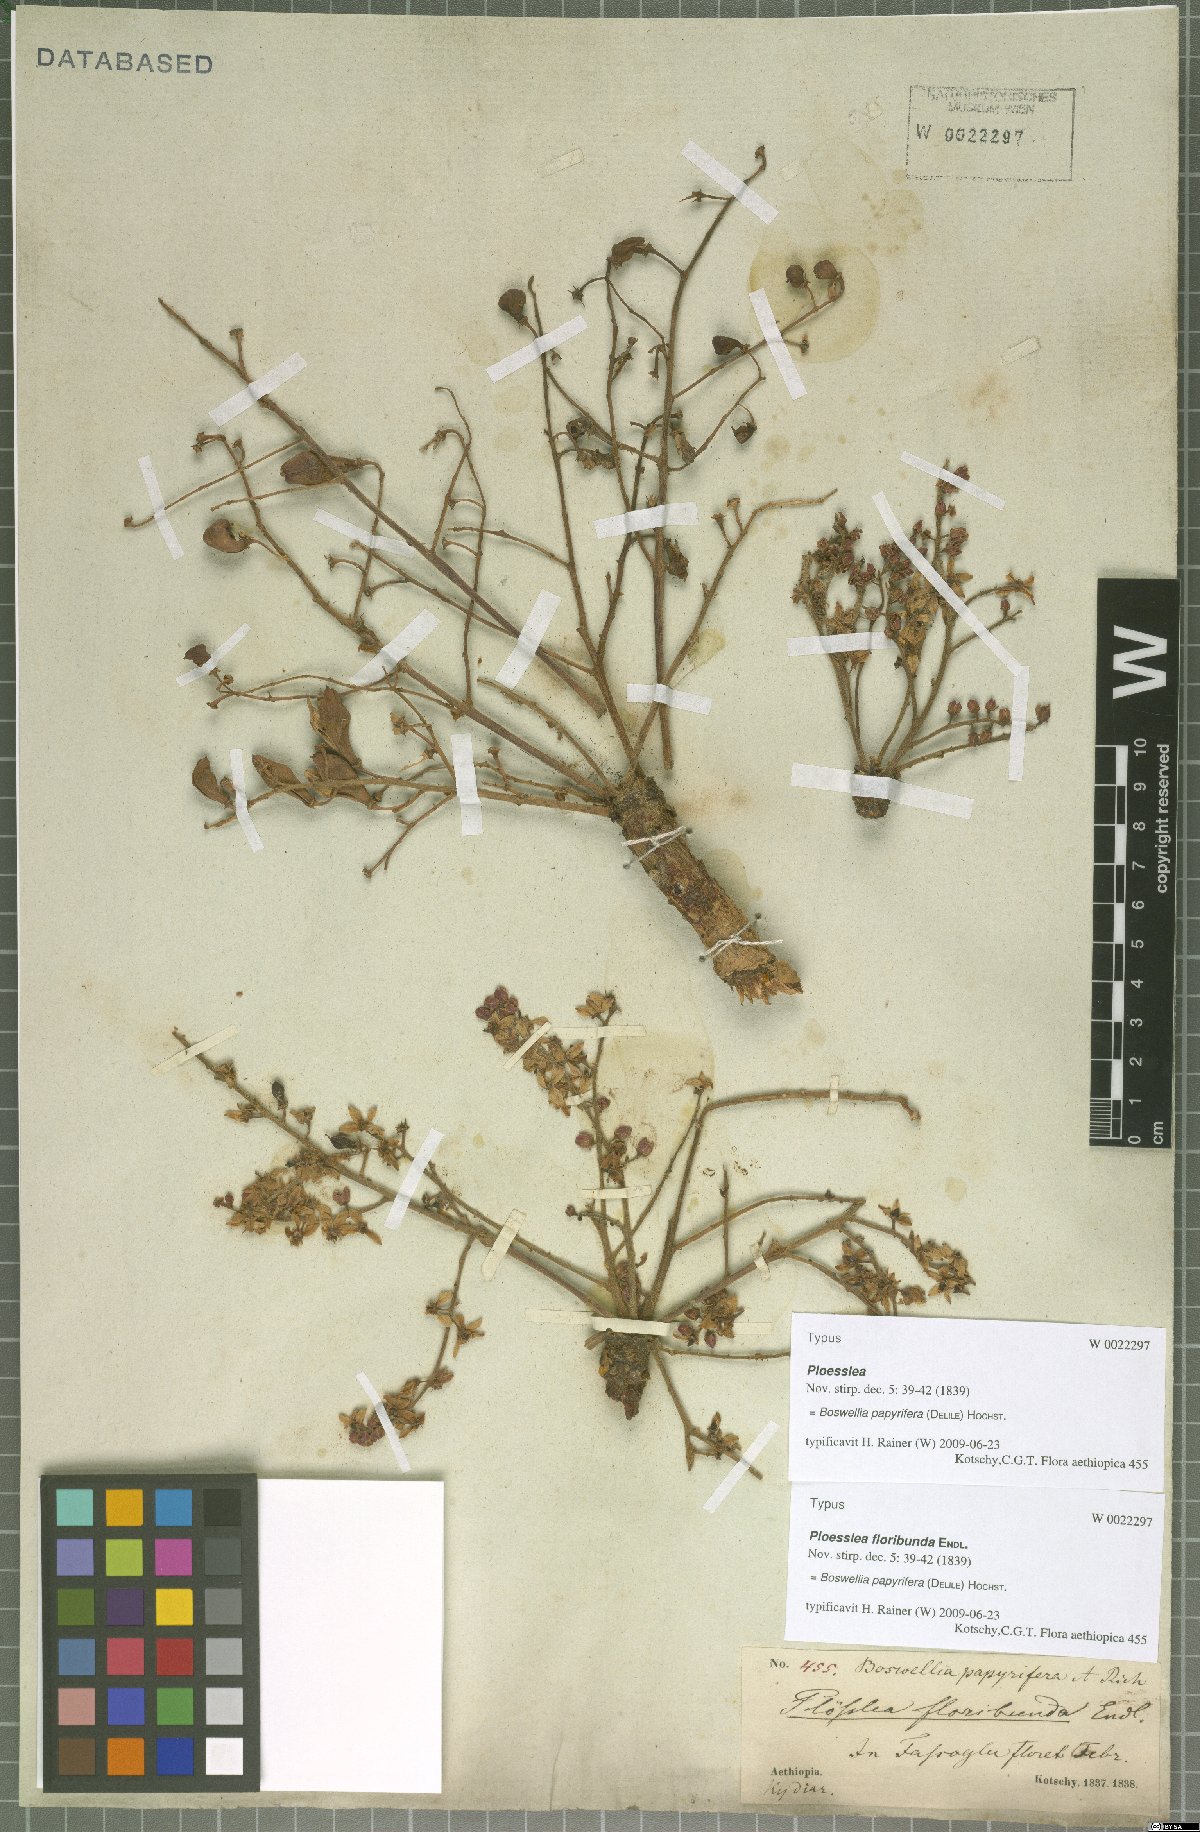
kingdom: Plantae
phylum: Tracheophyta
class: Magnoliopsida
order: Sapindales
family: Burseraceae
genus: Boswellia
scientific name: Boswellia papyrifera
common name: Sudanese frankincense
